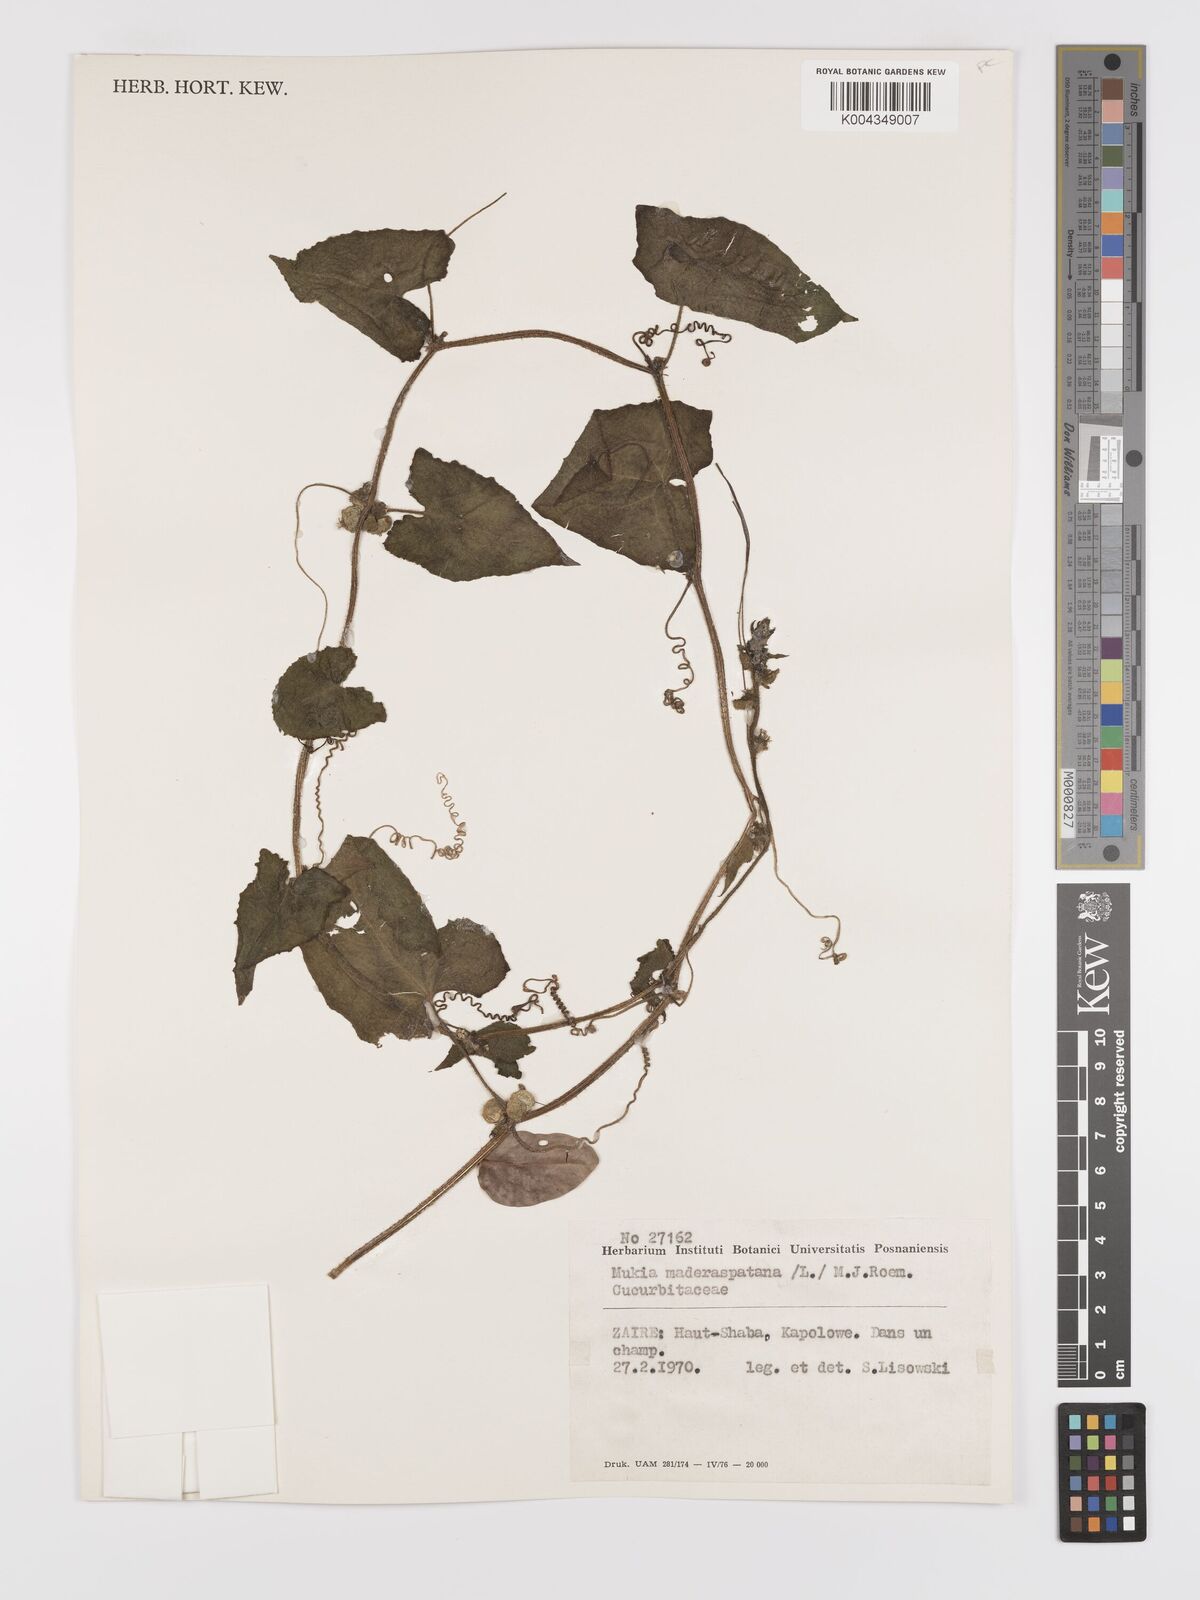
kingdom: Plantae
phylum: Tracheophyta
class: Magnoliopsida
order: Cucurbitales
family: Cucurbitaceae
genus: Cucumis
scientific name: Cucumis maderaspatanus
